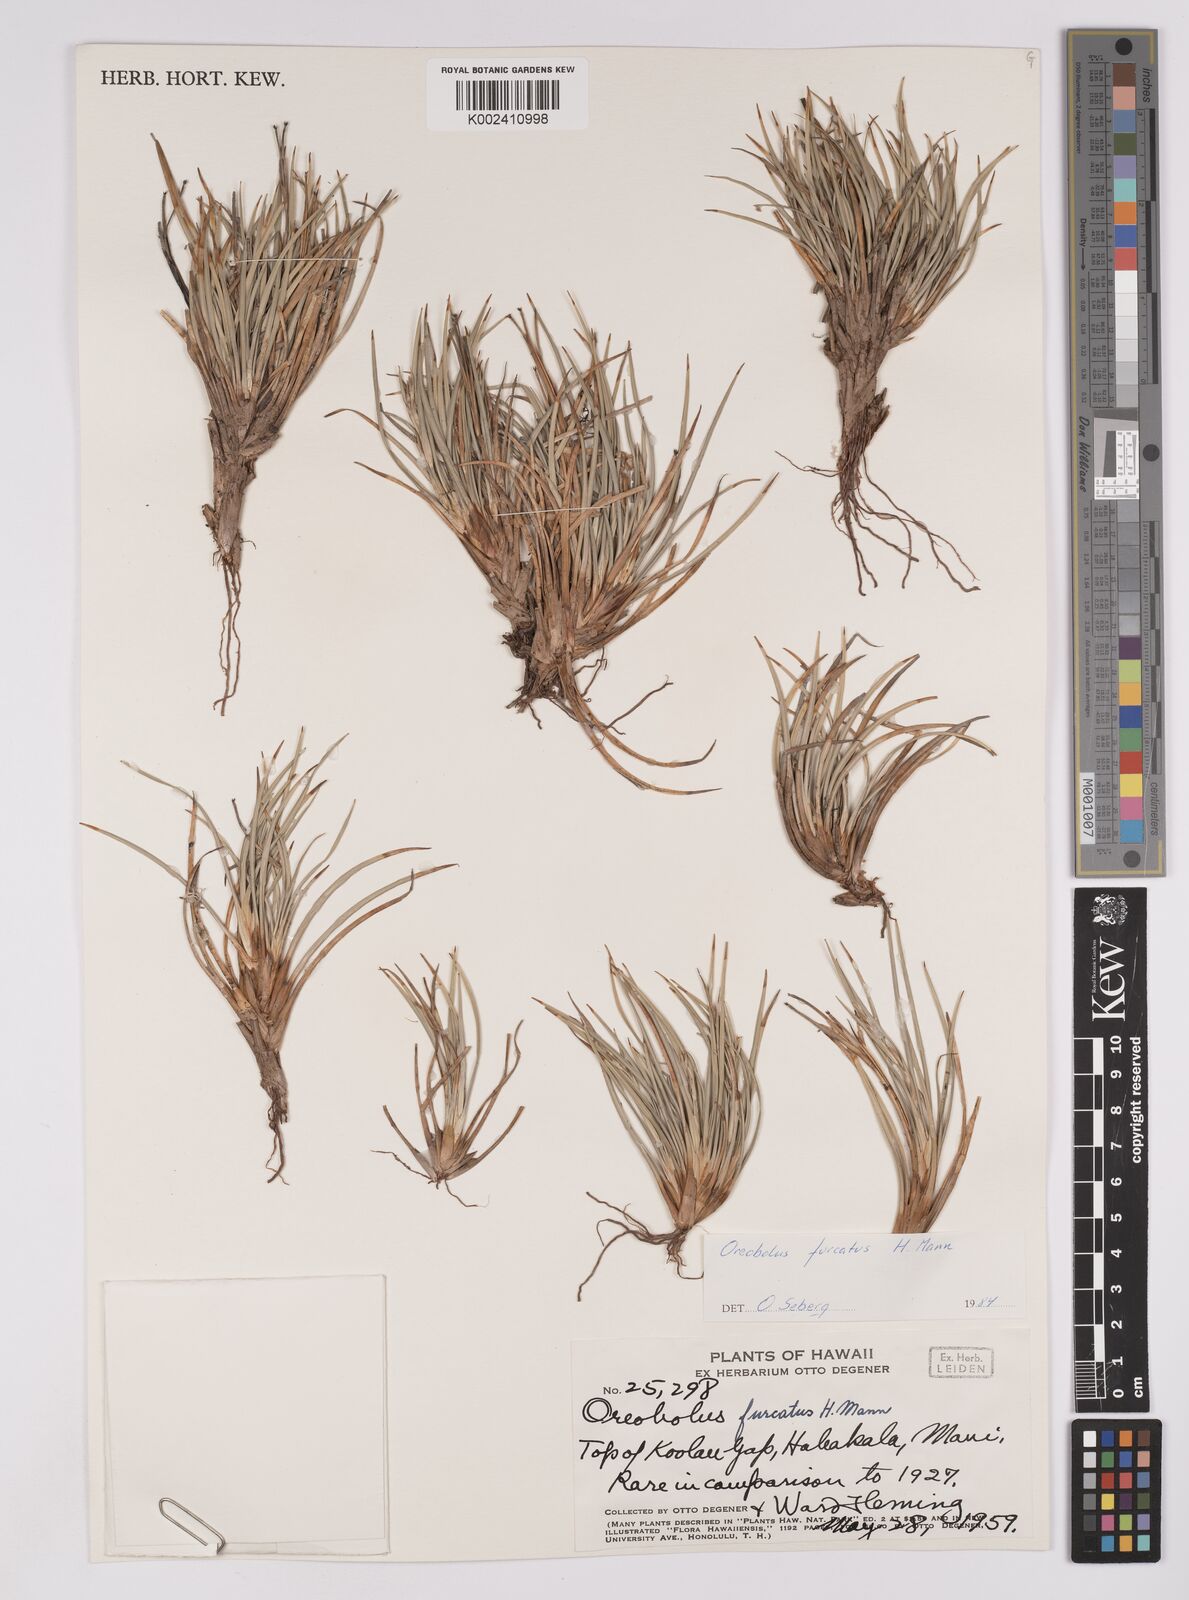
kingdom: Plantae
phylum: Tracheophyta
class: Liliopsida
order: Poales
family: Cyperaceae
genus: Oreobolus
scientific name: Oreobolus furcatus
